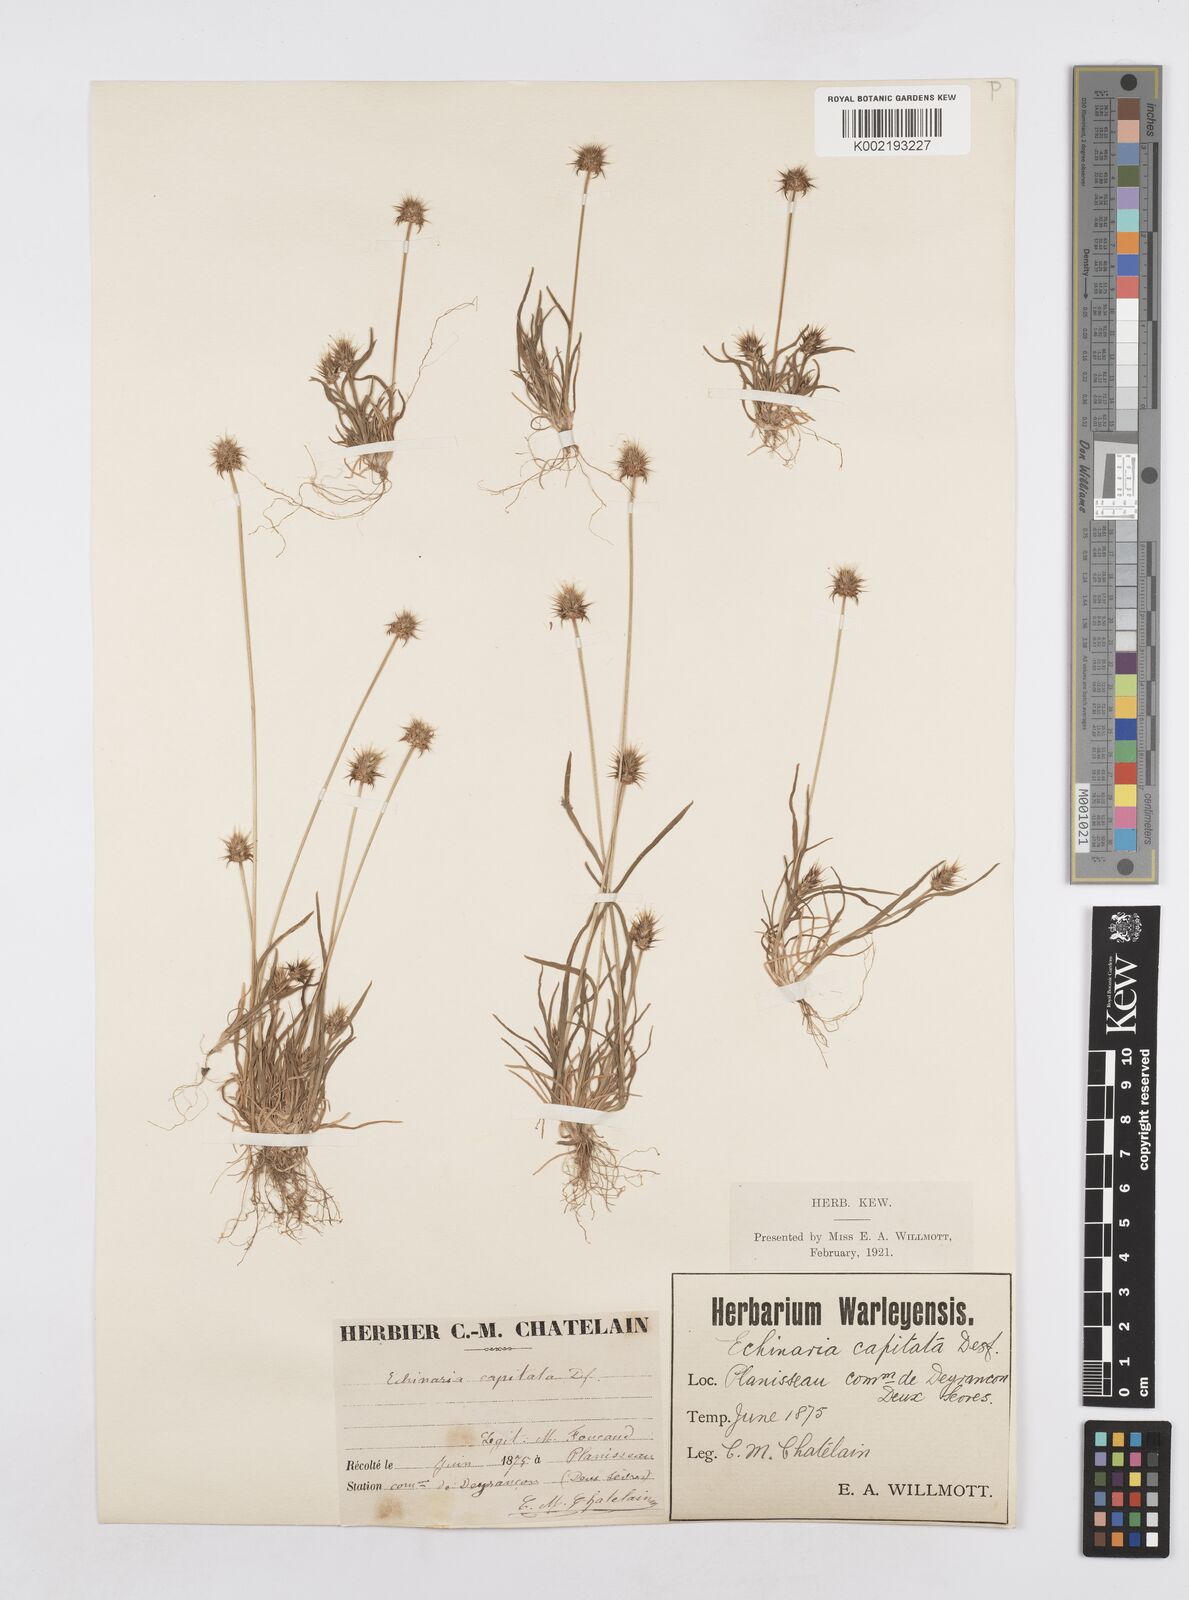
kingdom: Plantae
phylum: Tracheophyta
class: Liliopsida
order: Poales
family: Poaceae
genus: Echinaria
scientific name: Echinaria capitata
